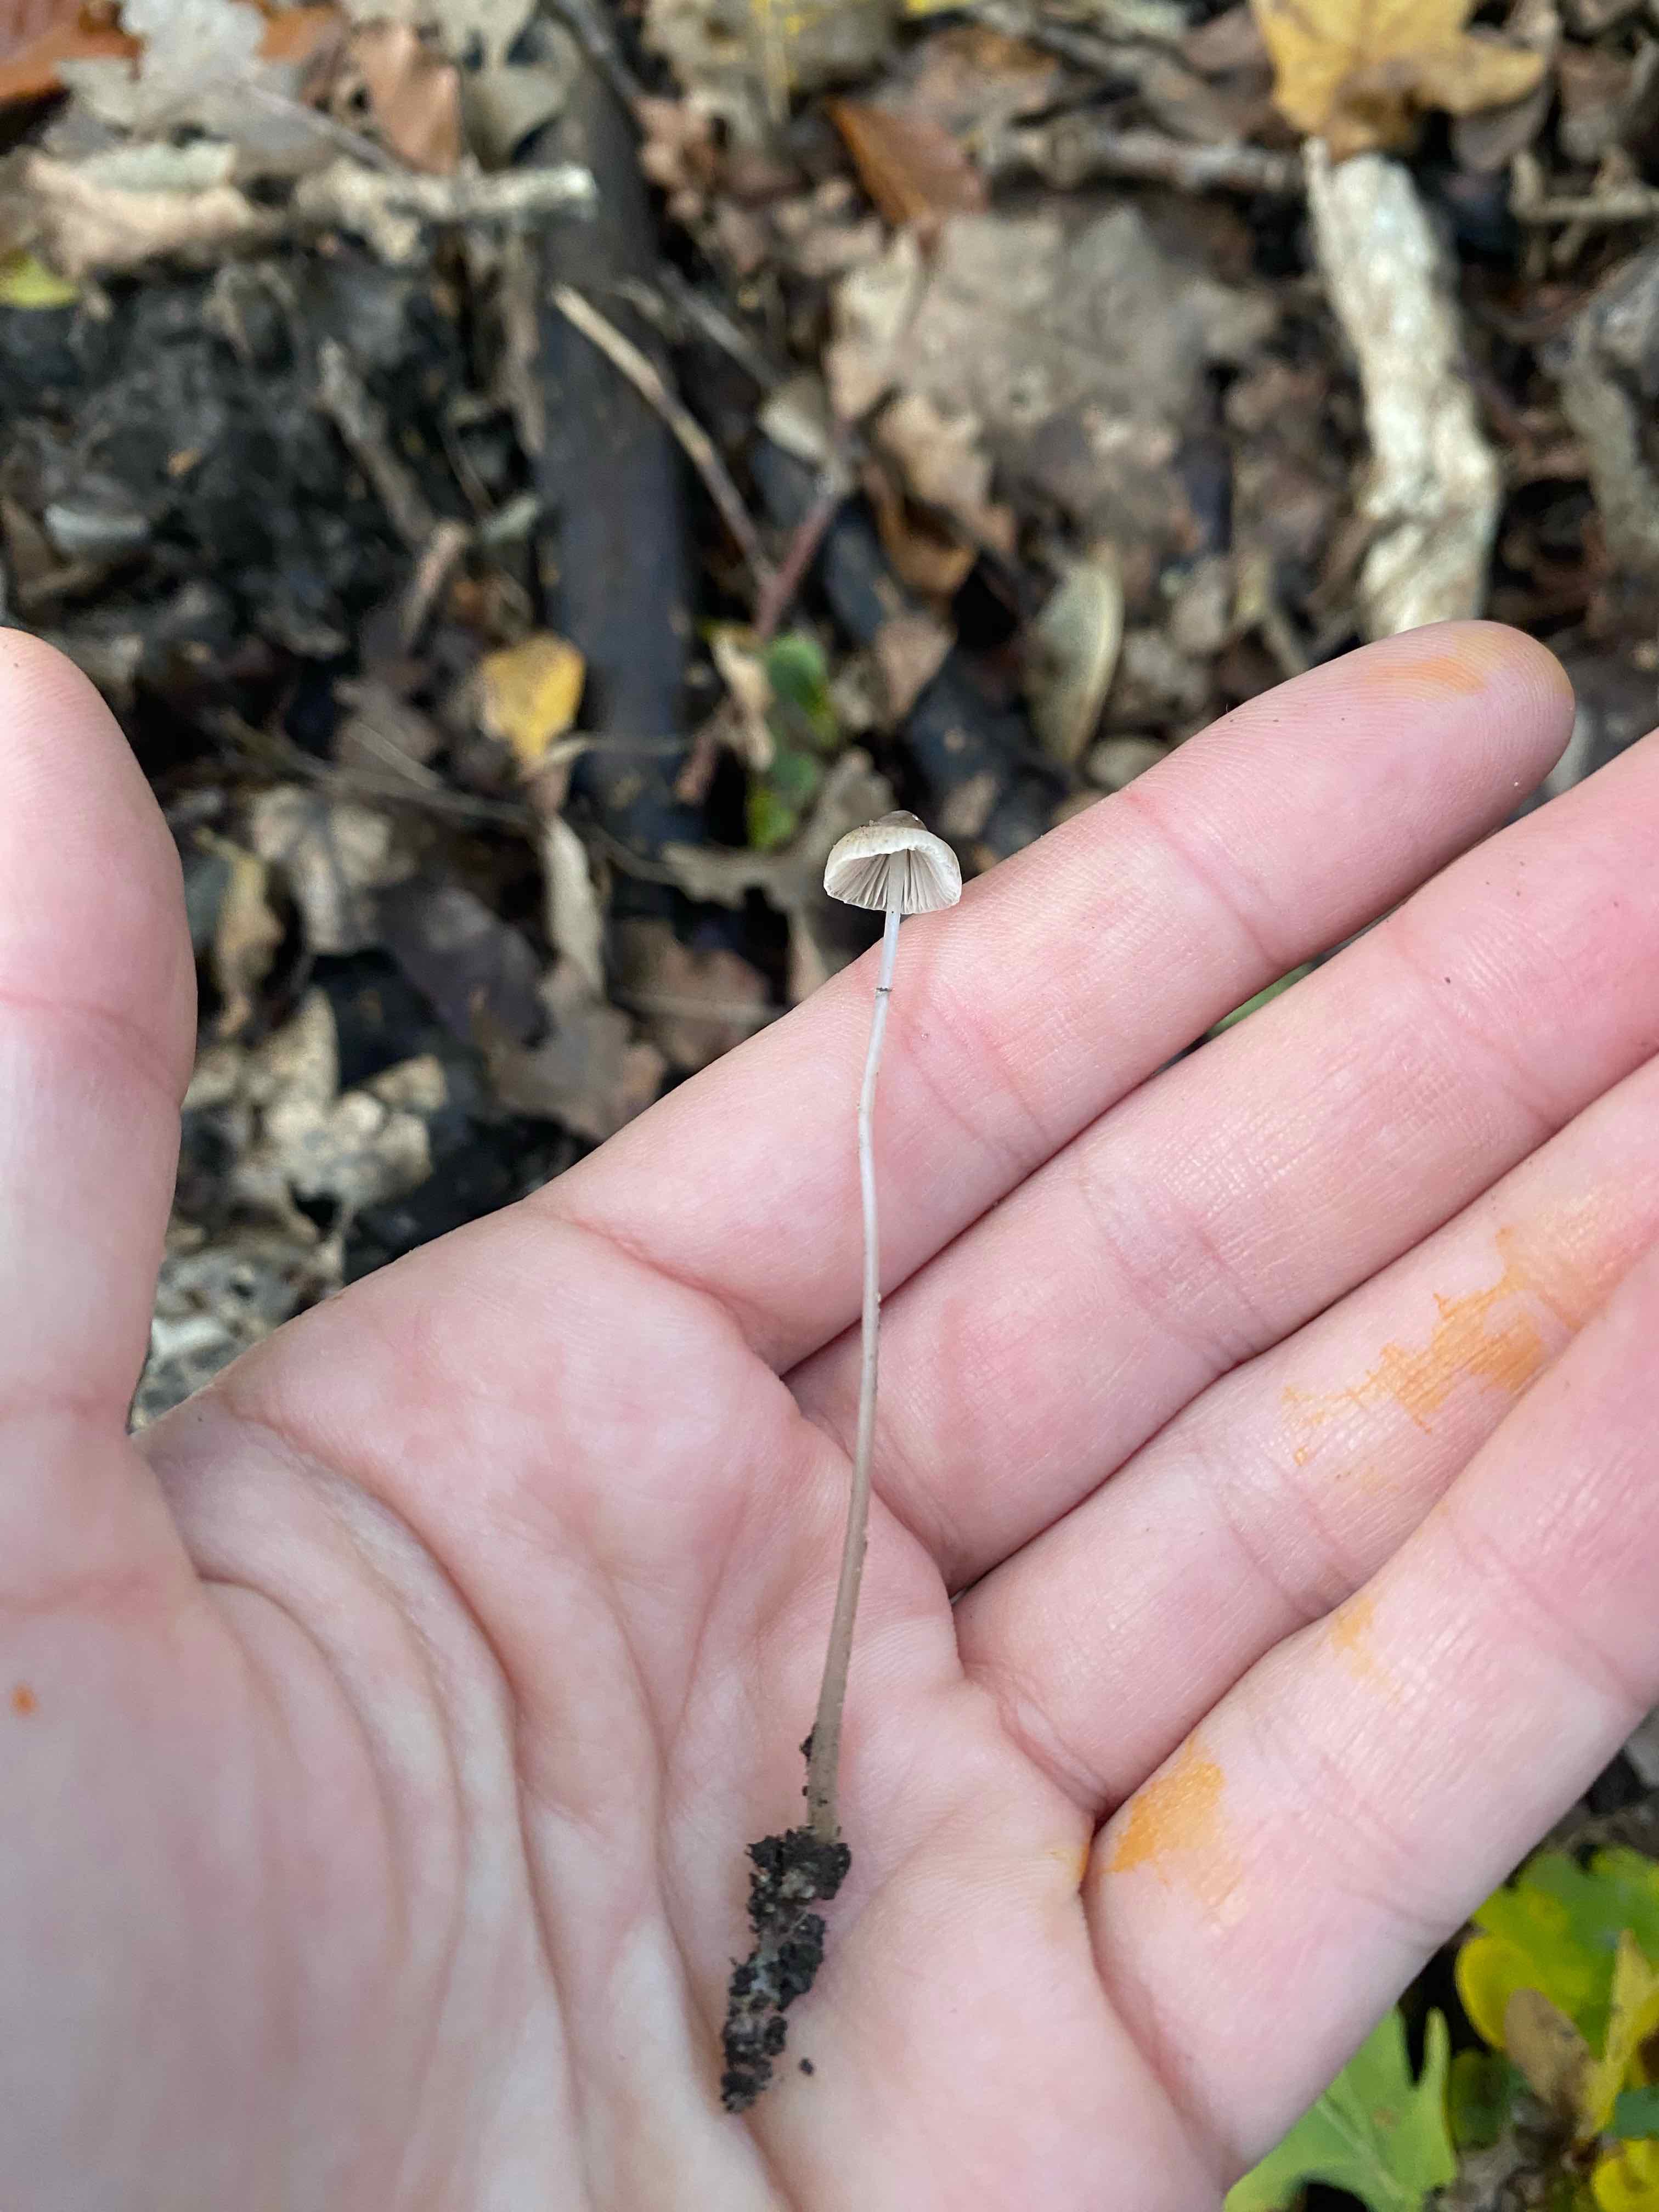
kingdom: Fungi
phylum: Basidiomycota
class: Agaricomycetes
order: Agaricales
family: Mycenaceae
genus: Mycena
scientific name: Mycena vitilis
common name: blankstokket huesvamp
